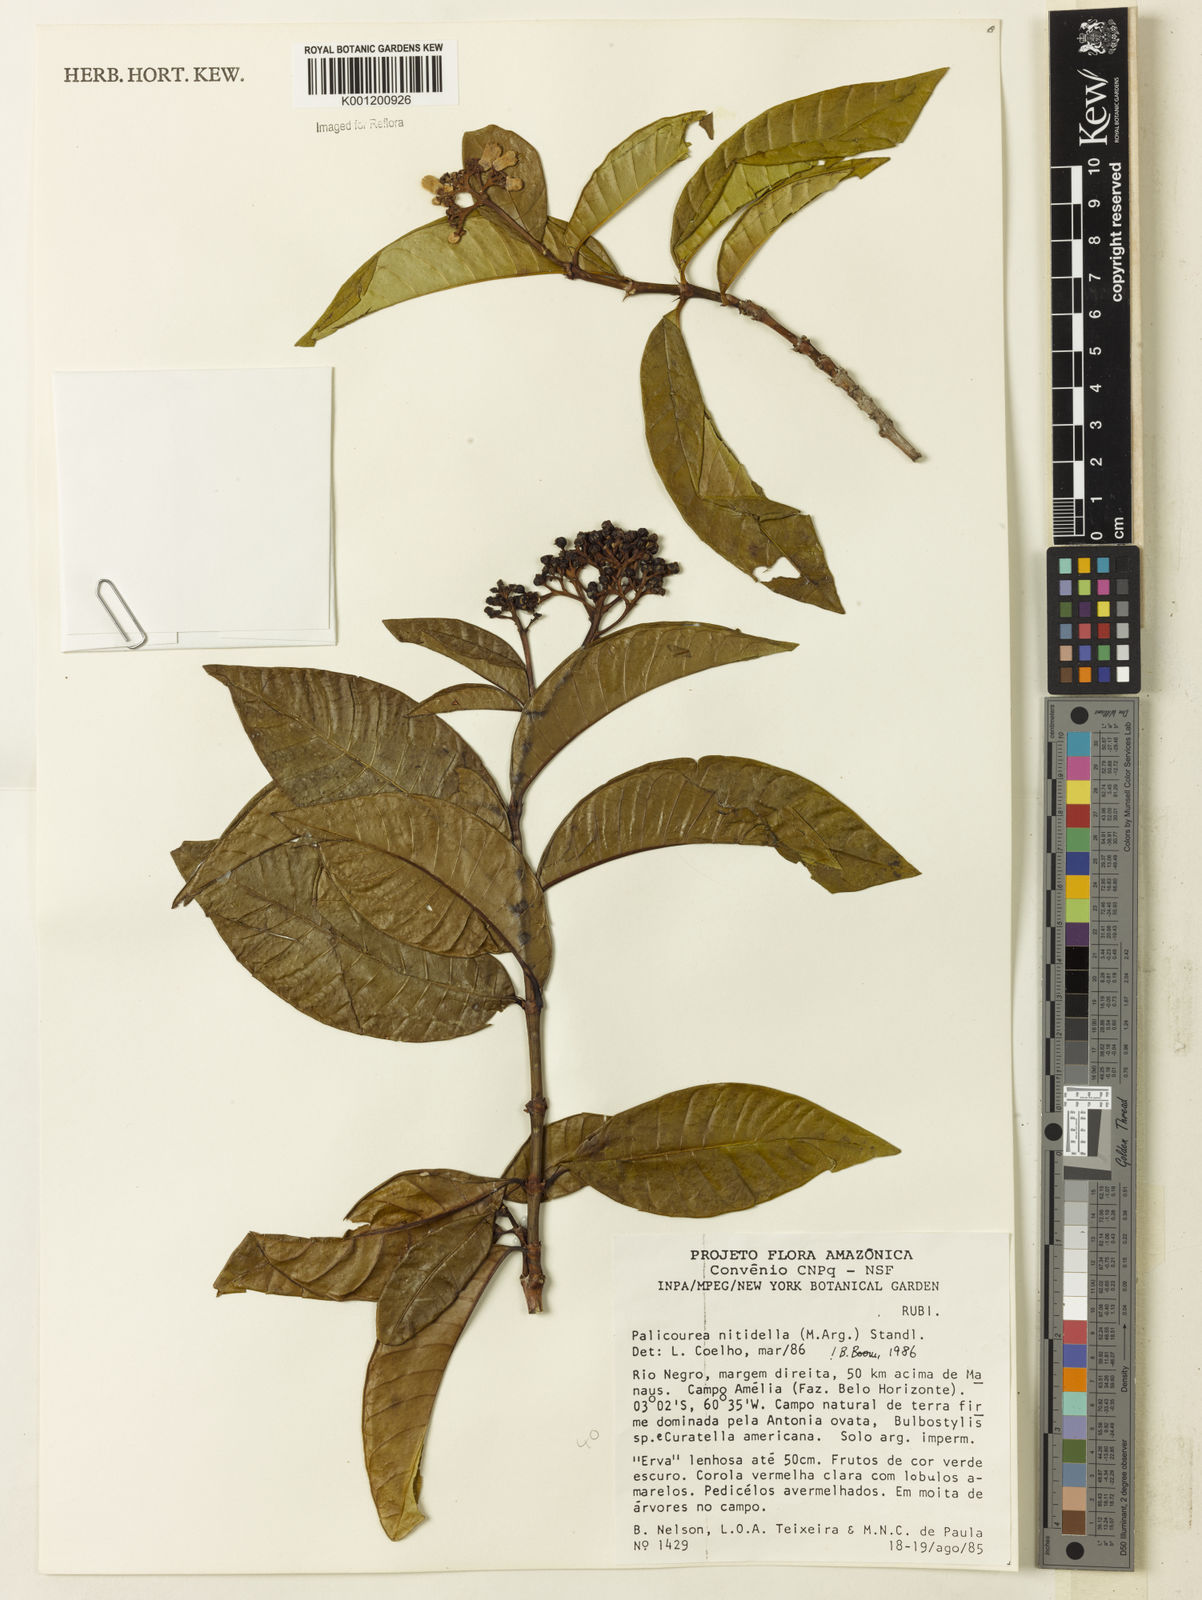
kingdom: Plantae
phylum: Tracheophyta
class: Magnoliopsida
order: Gentianales
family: Rubiaceae
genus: Palicourea
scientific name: Palicourea
